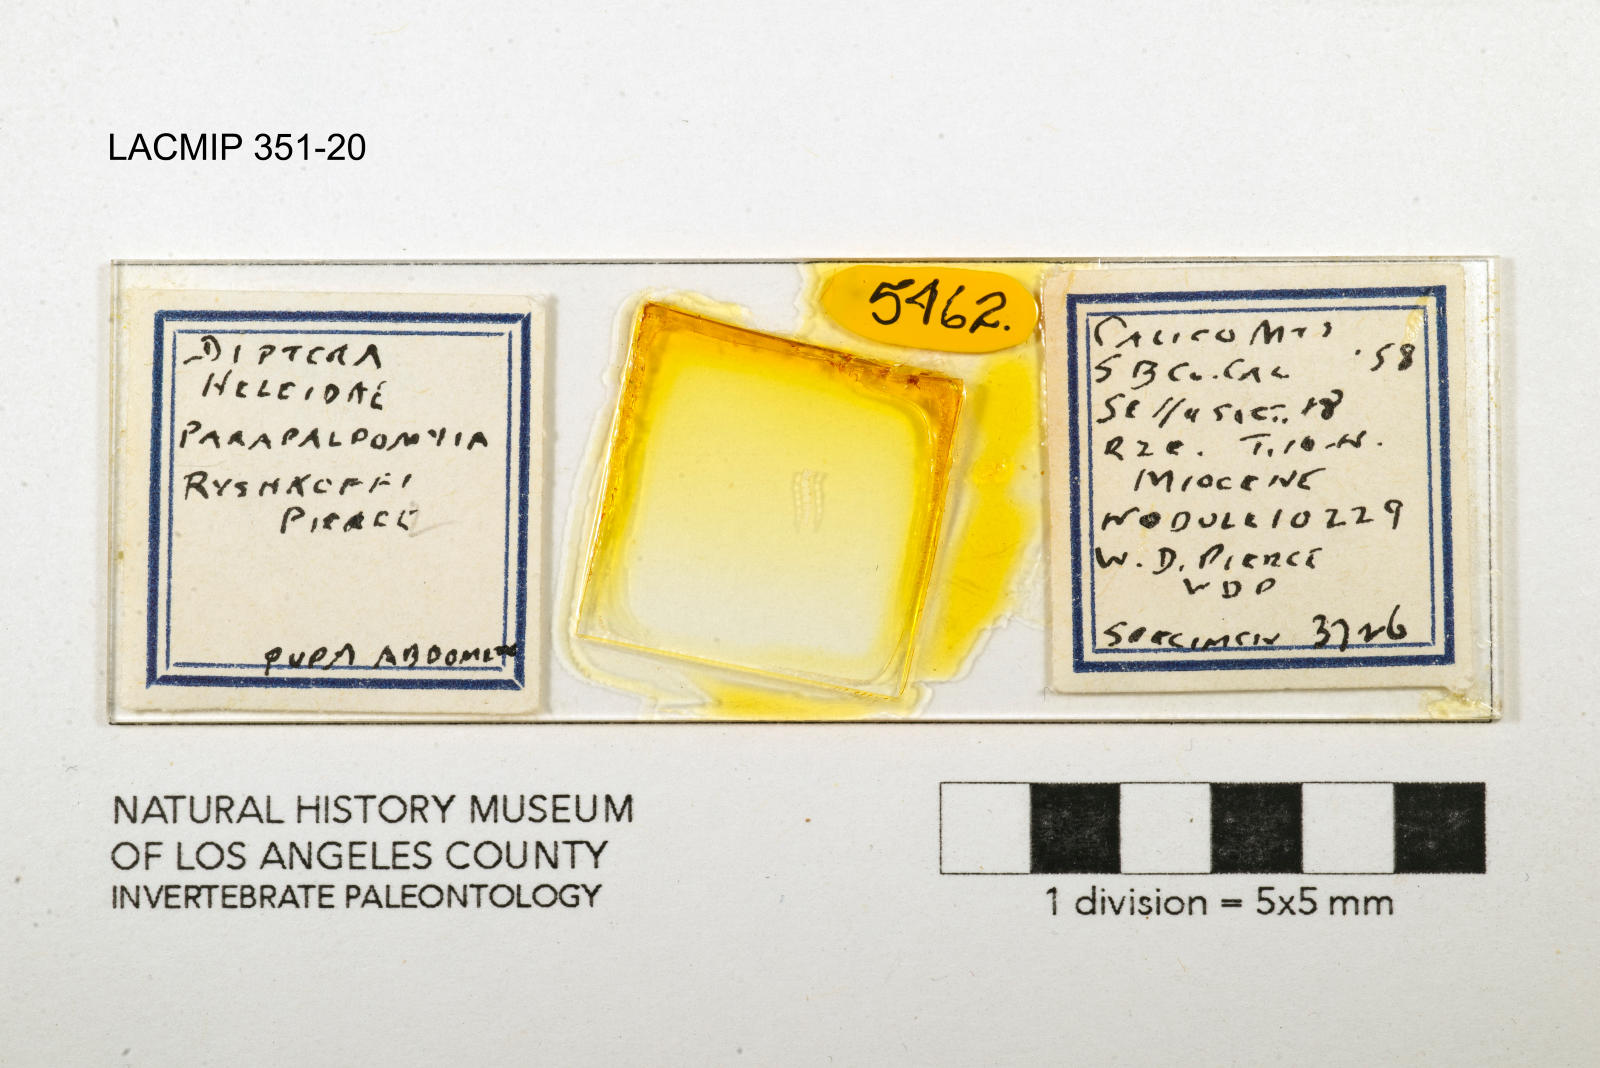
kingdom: Animalia
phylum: Arthropoda
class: Insecta
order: Diptera
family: Ceratopogonidae
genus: Palpomyia
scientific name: Palpomyia ryshkoffi
